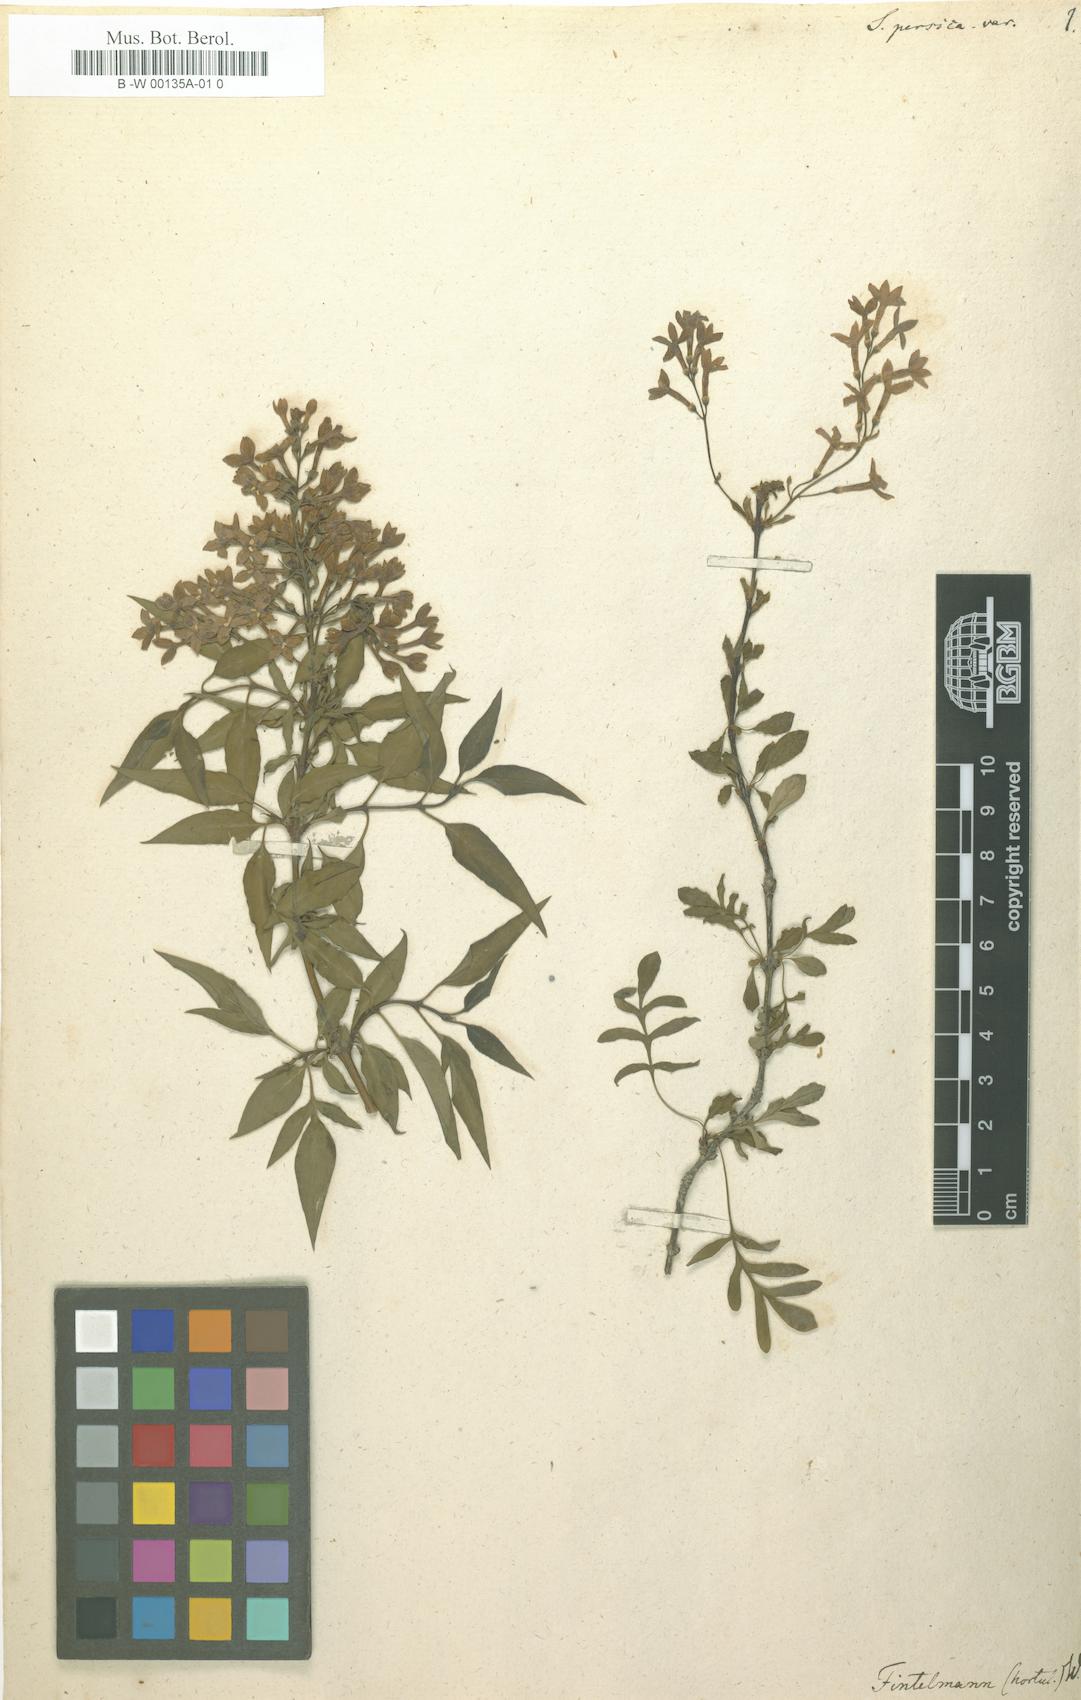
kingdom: Plantae
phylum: Tracheophyta
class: Magnoliopsida
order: Lamiales
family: Oleaceae
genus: Syringa
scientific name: Syringa persica
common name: Persian lilac
